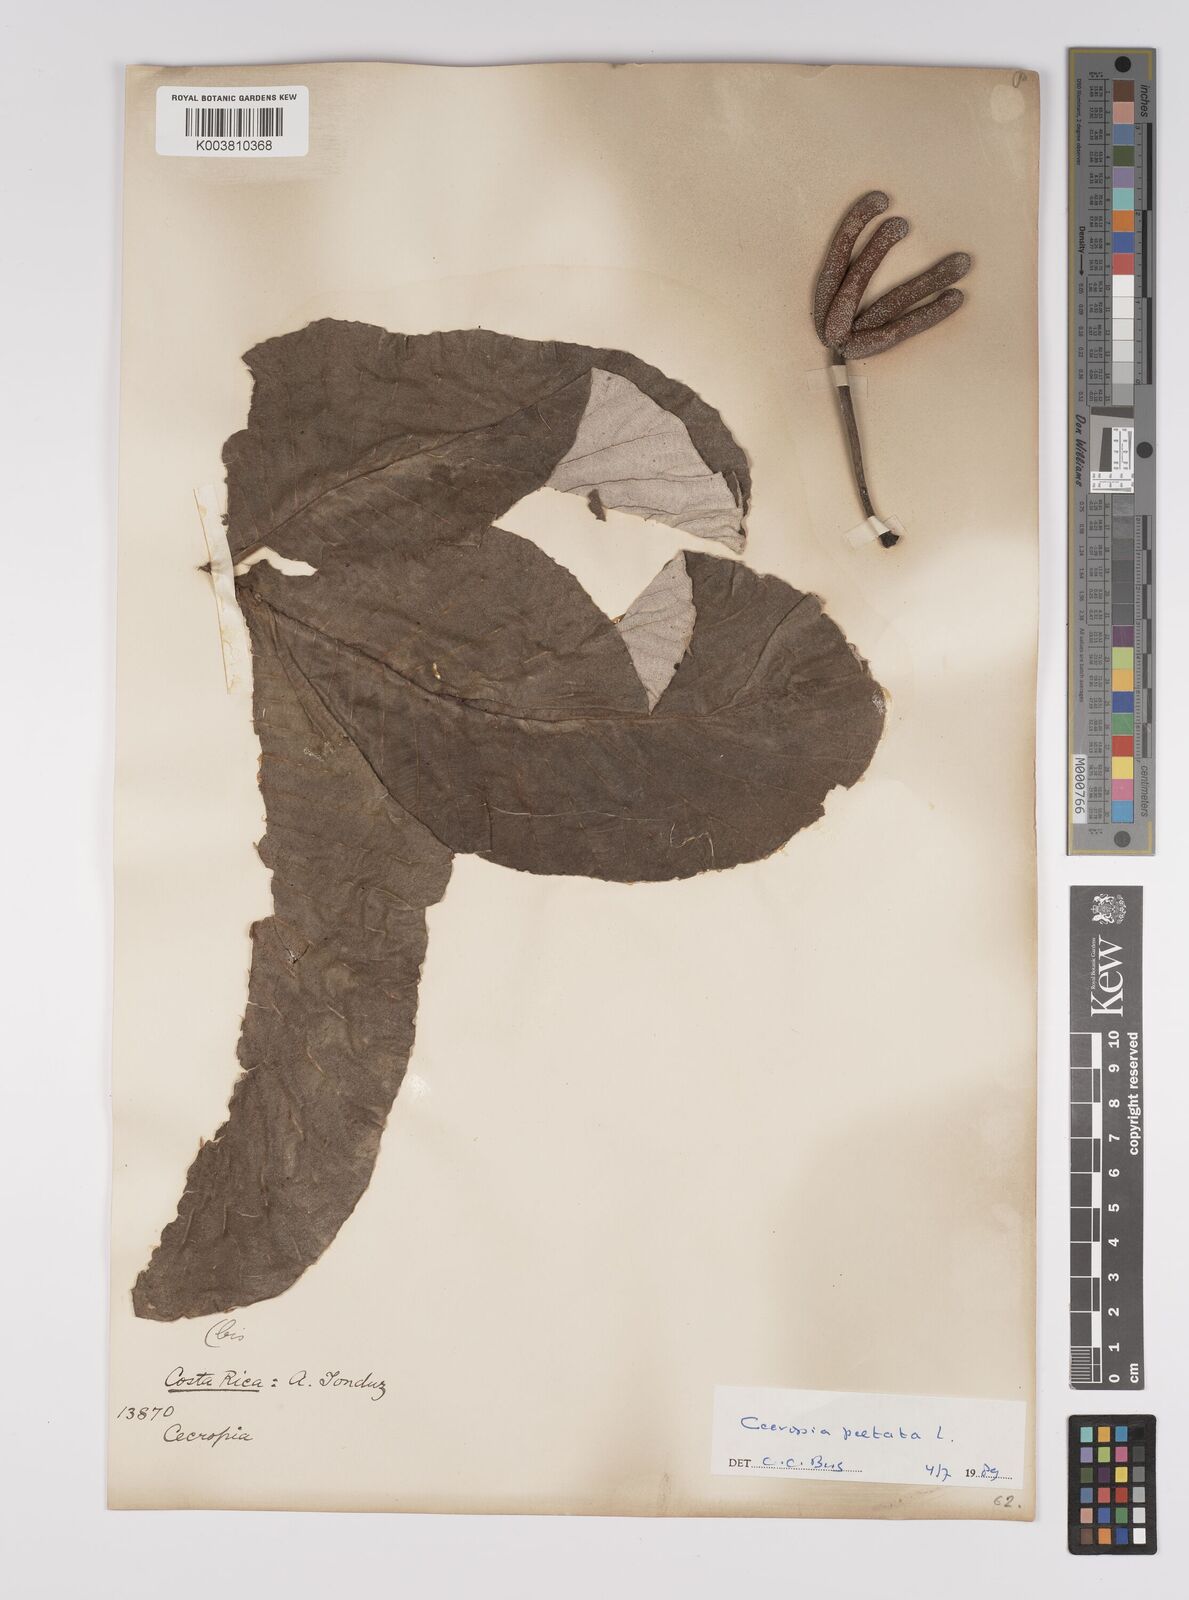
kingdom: Plantae
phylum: Tracheophyta
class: Magnoliopsida
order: Rosales
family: Urticaceae
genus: Cecropia
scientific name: Cecropia
